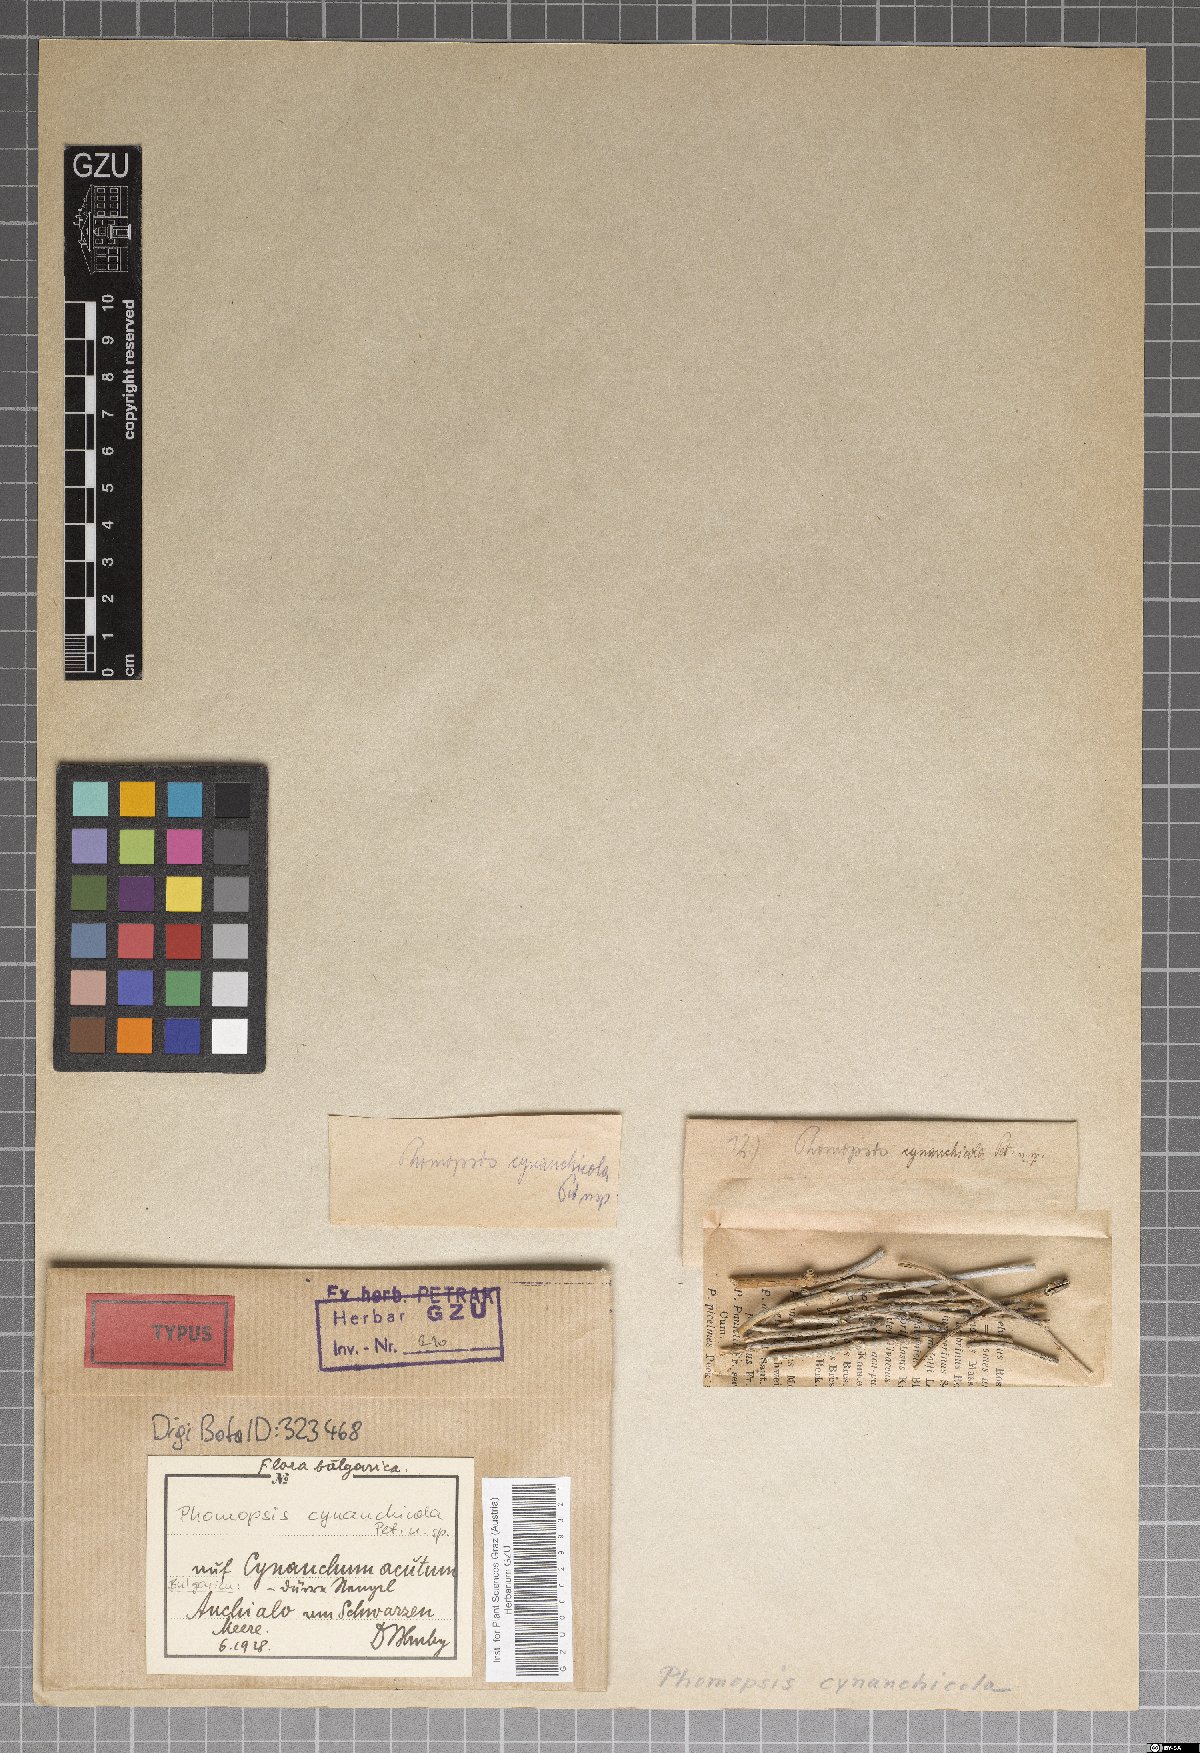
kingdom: Fungi
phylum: Ascomycota
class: Sordariomycetes
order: Diaporthales
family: Diaporthaceae
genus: Phomopsis
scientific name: Phomopsis cynanchicola
